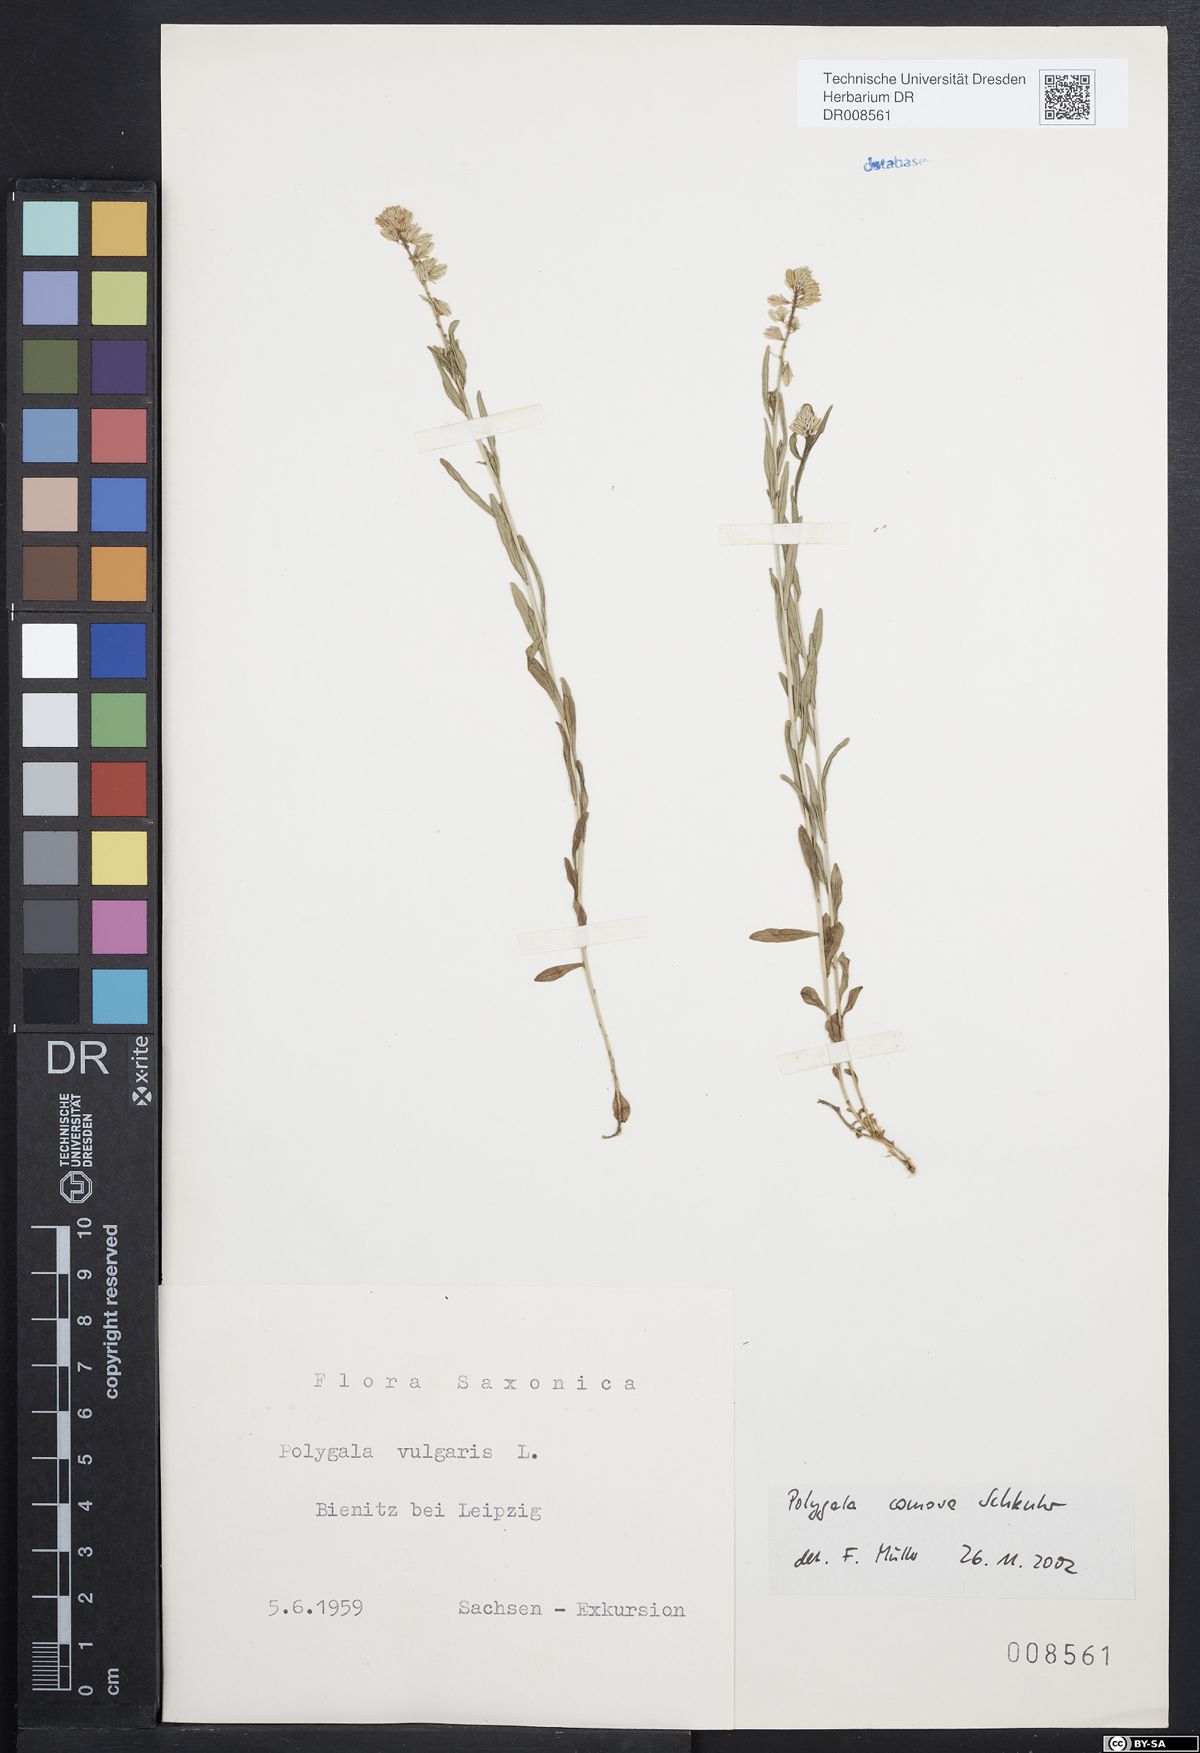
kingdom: Plantae
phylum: Tracheophyta
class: Magnoliopsida
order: Fabales
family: Polygalaceae
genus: Polygala
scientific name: Polygala comosa
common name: Tufted milkwort
